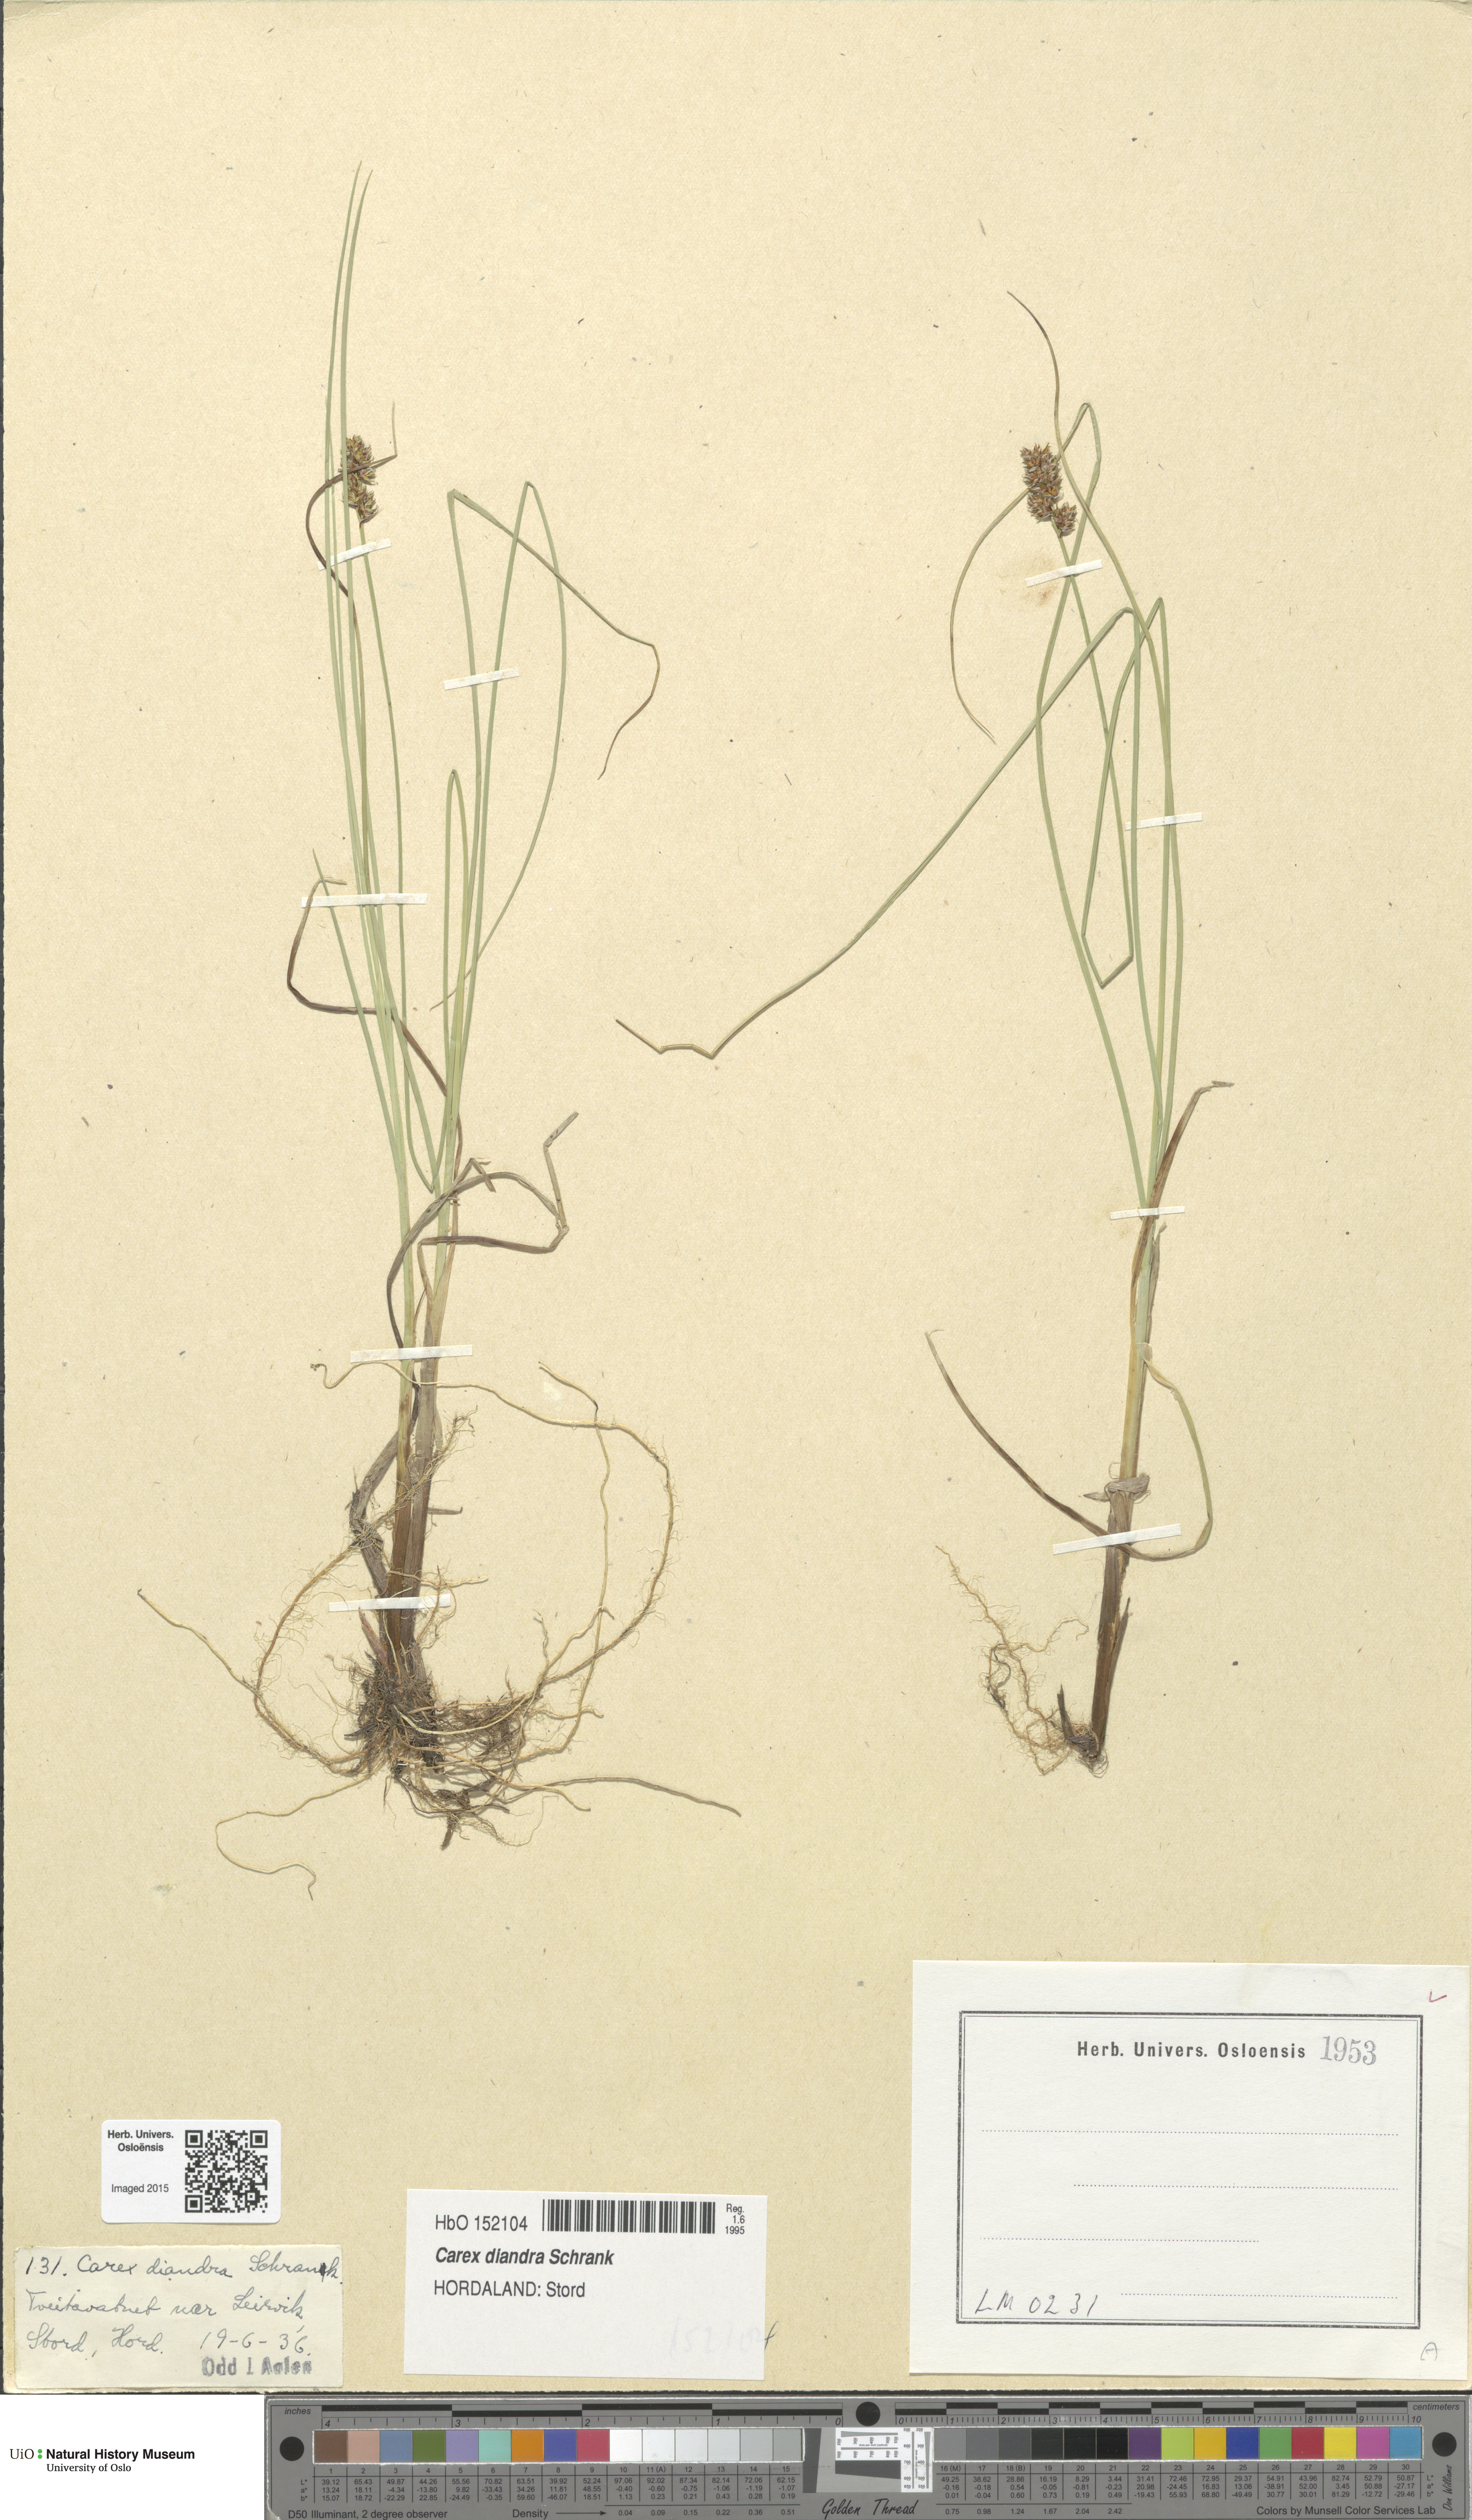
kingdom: Plantae
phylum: Tracheophyta
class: Liliopsida
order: Poales
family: Cyperaceae
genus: Carex
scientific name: Carex diandra
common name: Lesser tussock-sedge
